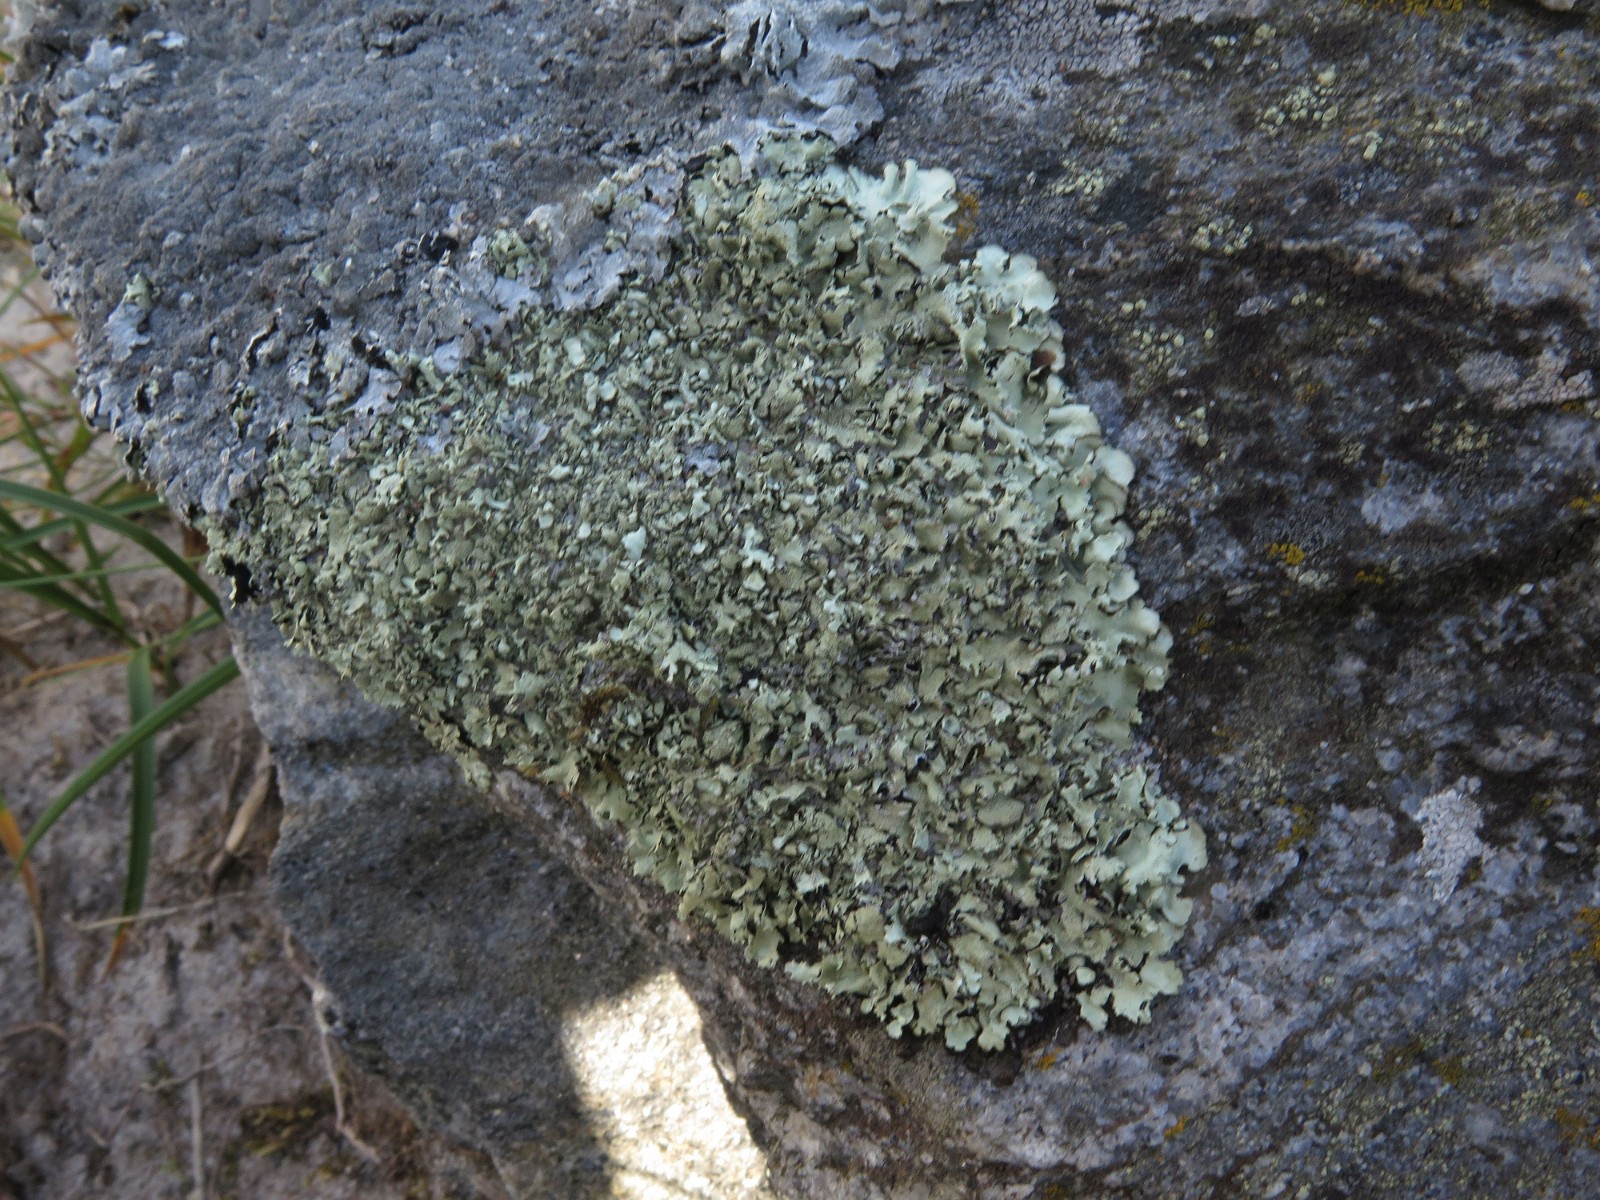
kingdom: Fungi
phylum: Ascomycota
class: Lecanoromycetes
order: Lecanorales
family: Parmeliaceae
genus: Xanthoparmelia
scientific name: Xanthoparmelia conspersa
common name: messing-skållav
